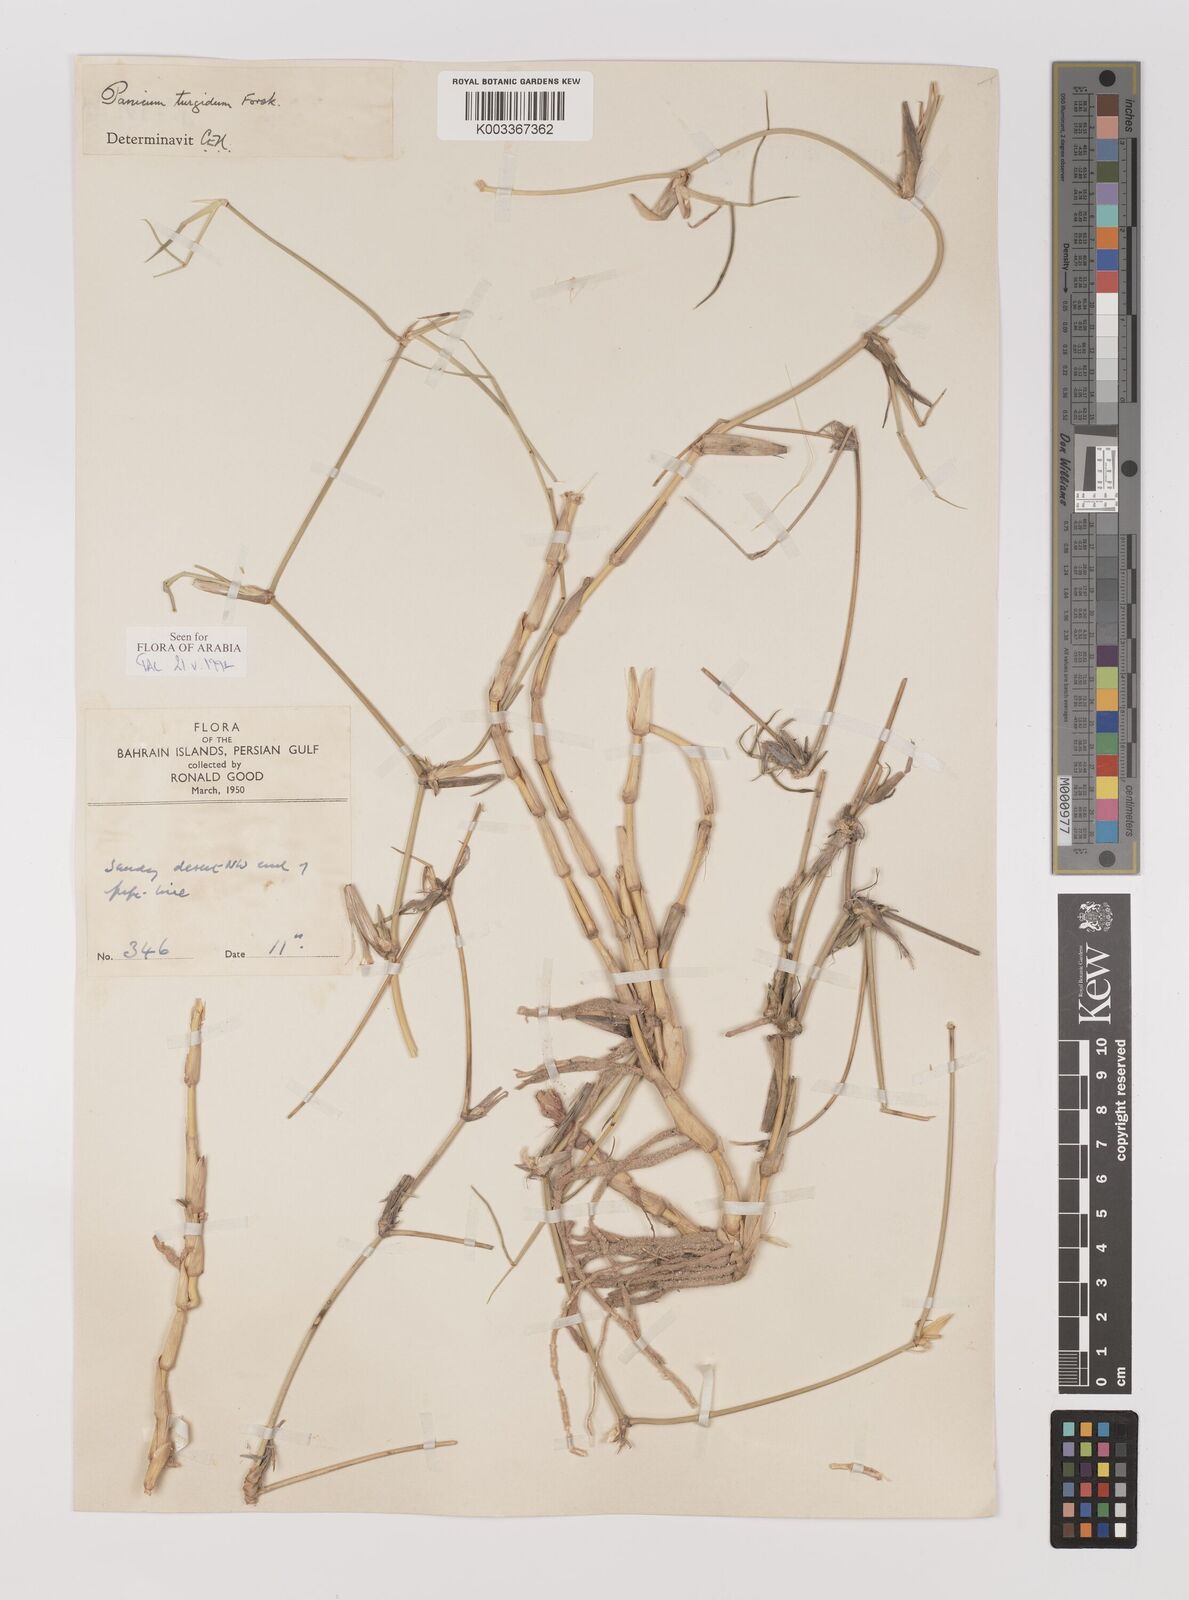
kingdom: Plantae
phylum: Tracheophyta
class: Liliopsida
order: Poales
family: Poaceae
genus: Panicum
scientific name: Panicum turgidum
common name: Desert grass
